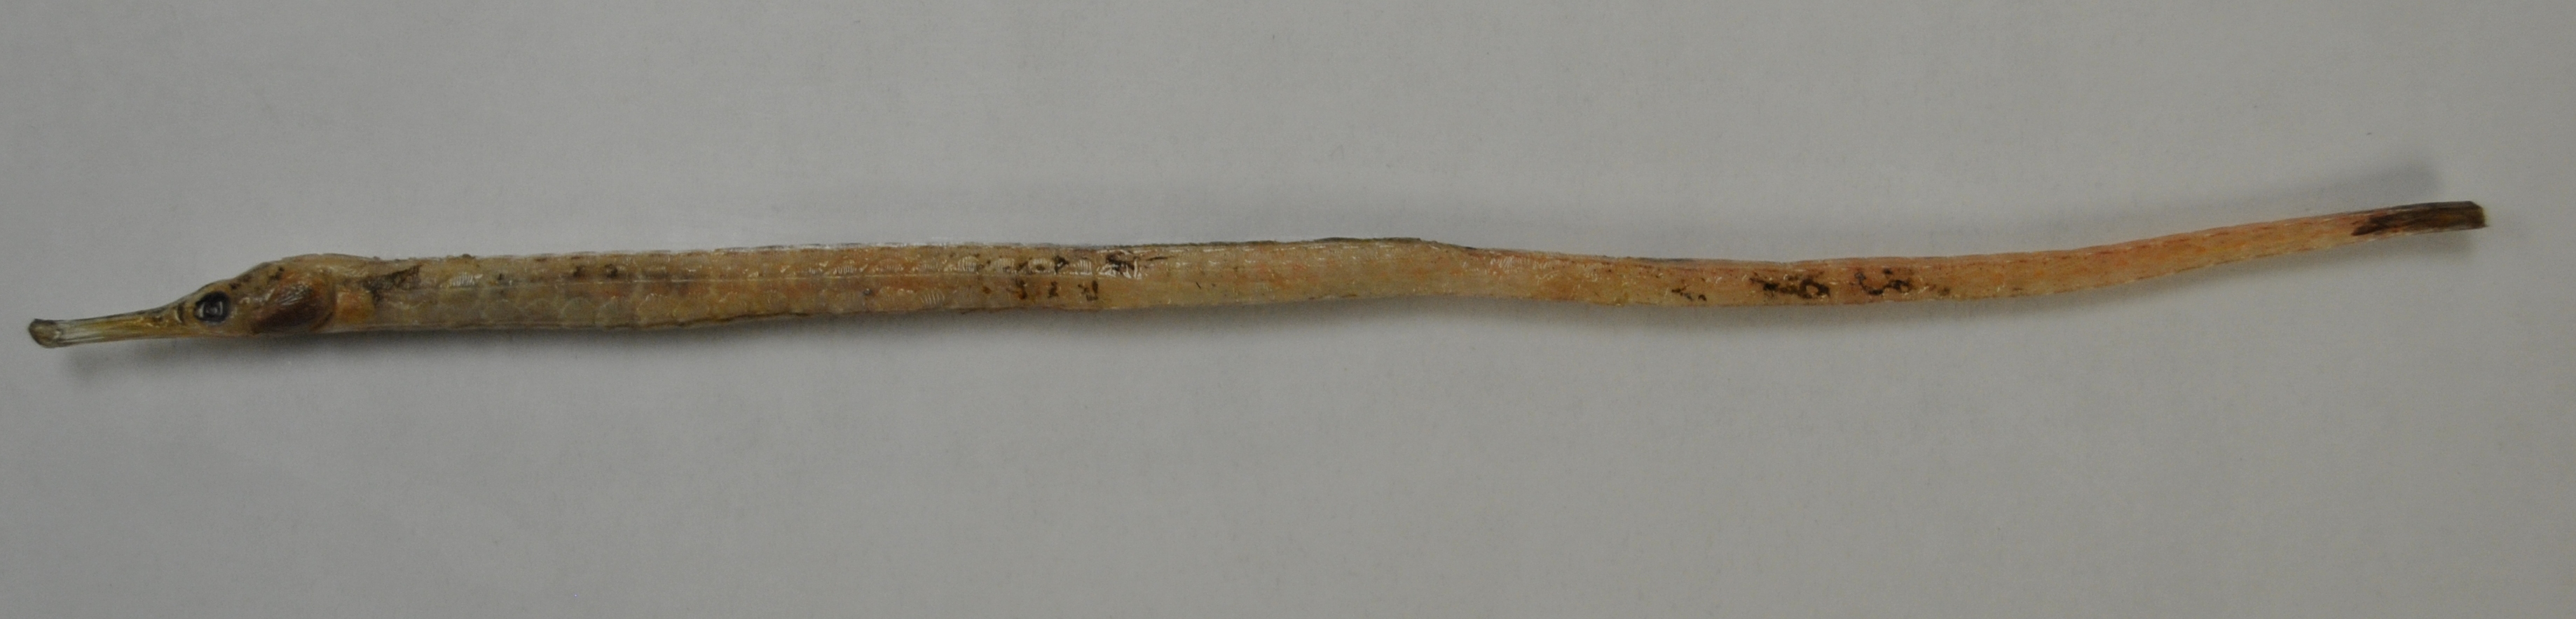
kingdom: Animalia
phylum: Chordata
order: Syngnathiformes
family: Syngnathidae
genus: Syngnathus
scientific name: Syngnathus acus
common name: Greater pipefish
